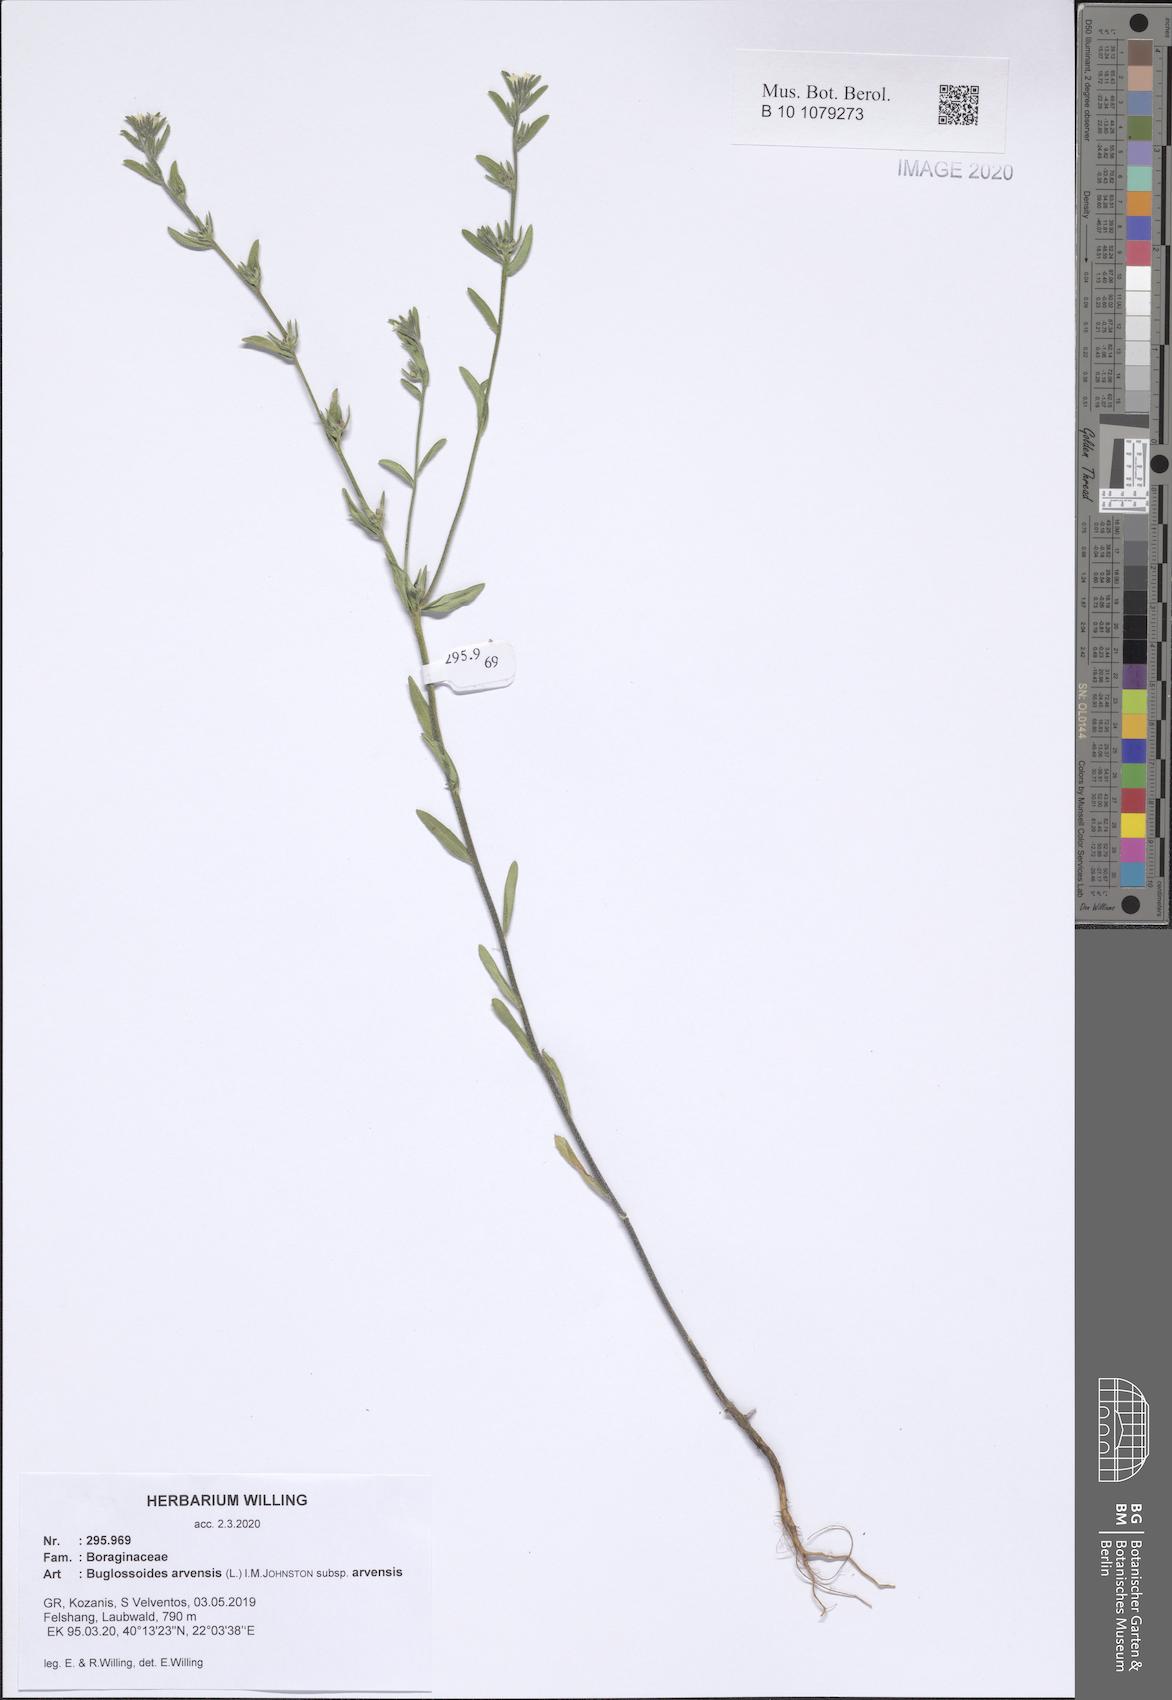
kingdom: Plantae
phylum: Tracheophyta
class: Magnoliopsida
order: Boraginales
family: Boraginaceae
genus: Buglossoides
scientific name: Buglossoides arvensis
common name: Corn gromwell
